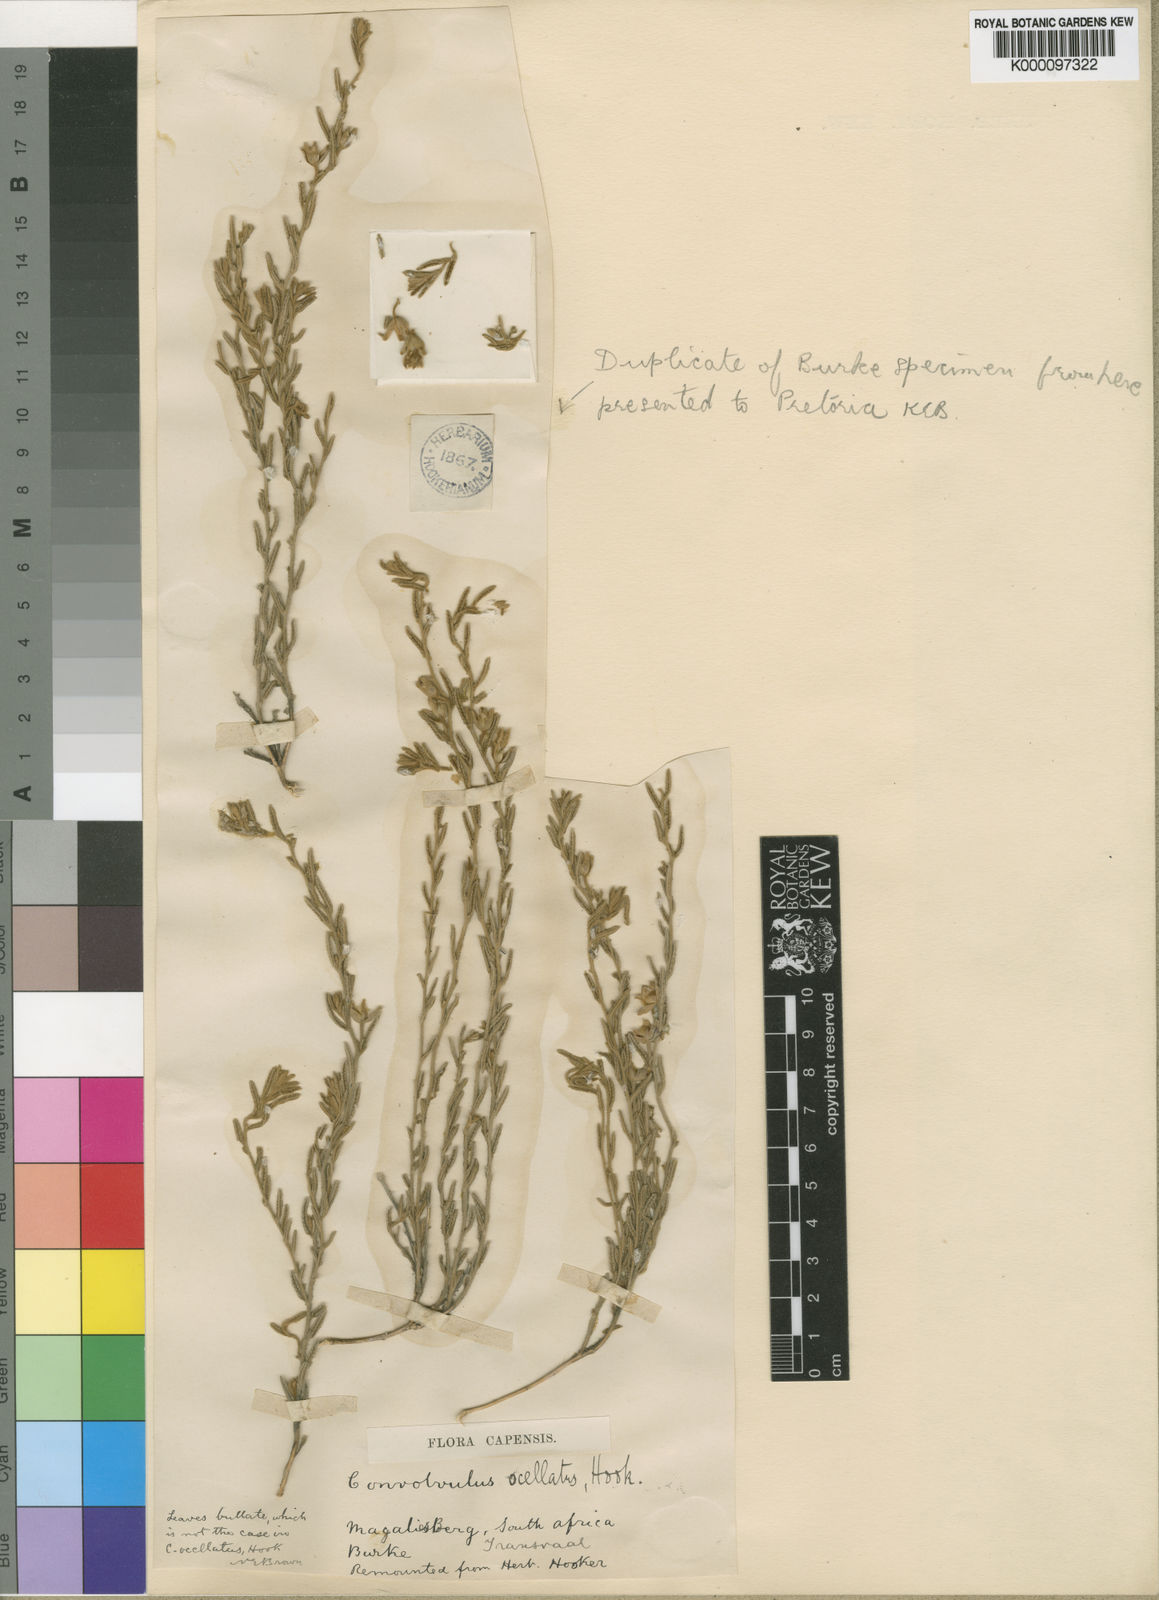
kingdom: Plantae
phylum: Tracheophyta
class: Magnoliopsida
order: Solanales
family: Convolvulaceae
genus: Convolvulus
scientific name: Convolvulus ocellatus
